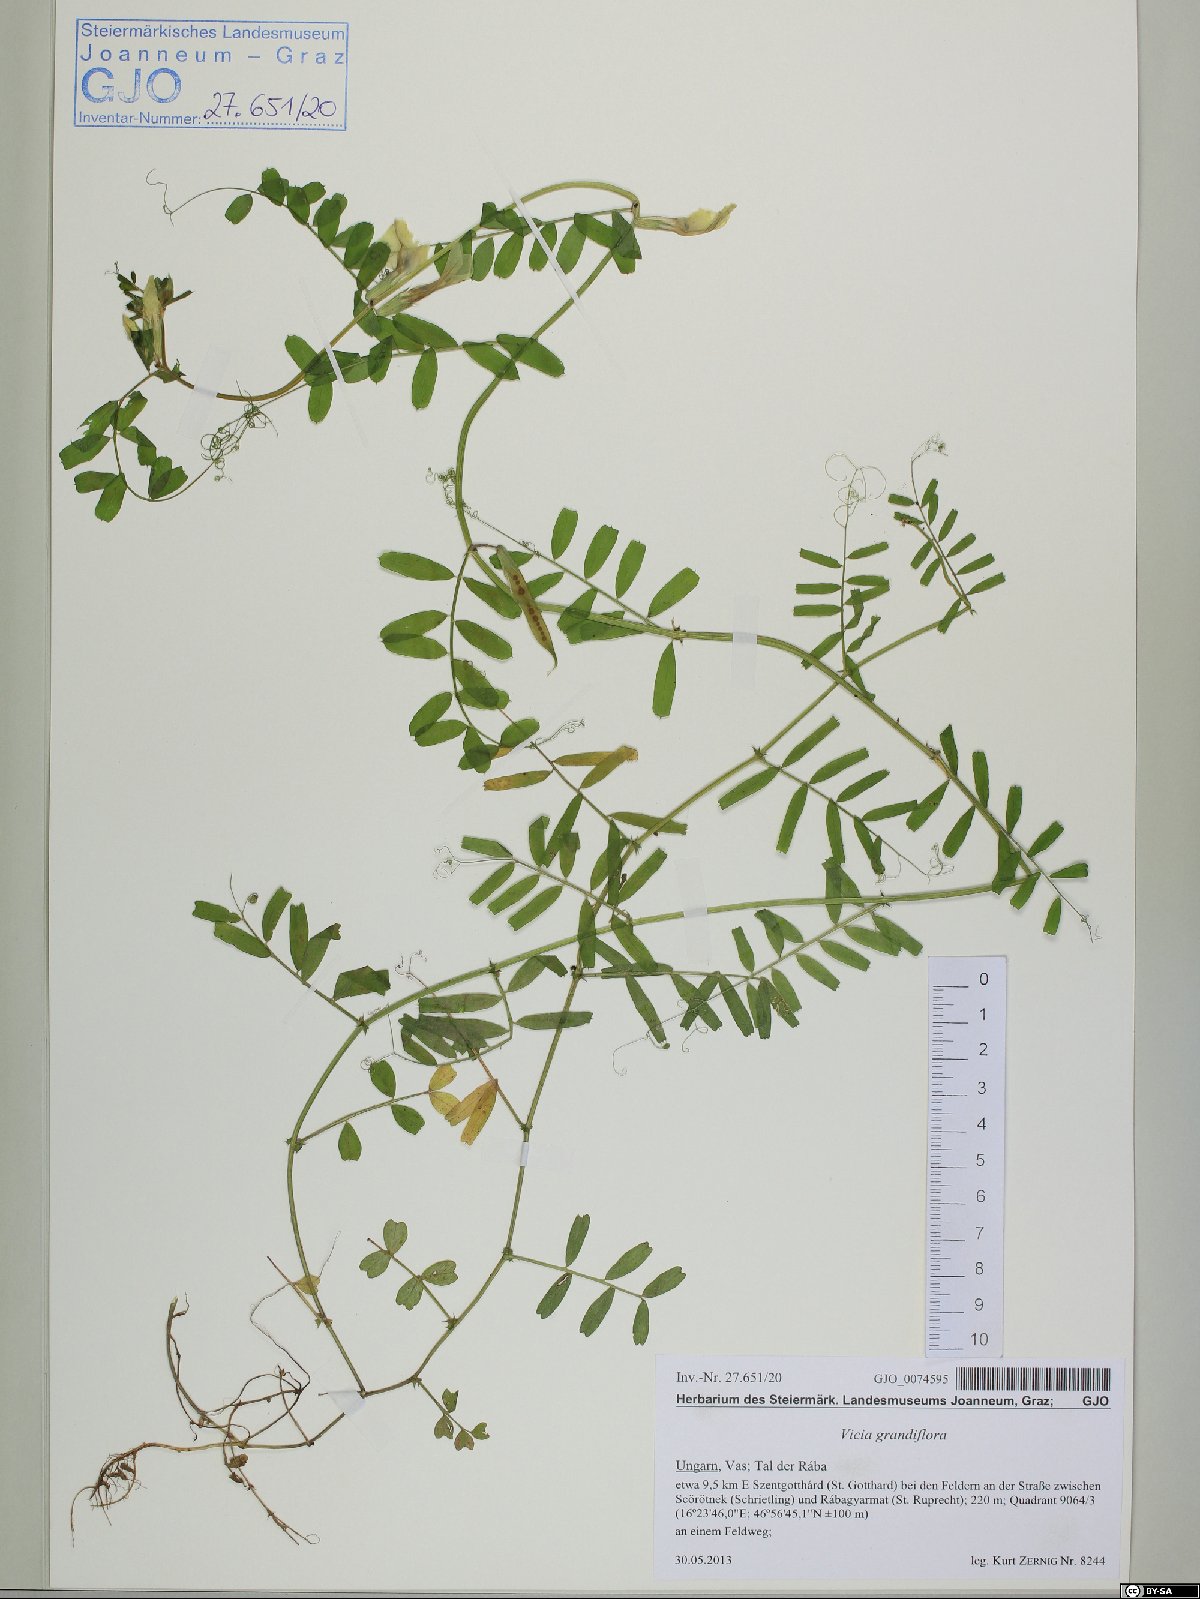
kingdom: Plantae
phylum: Tracheophyta
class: Magnoliopsida
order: Fabales
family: Fabaceae
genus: Vicia
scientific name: Vicia grandiflora
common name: Large yellow vetch
